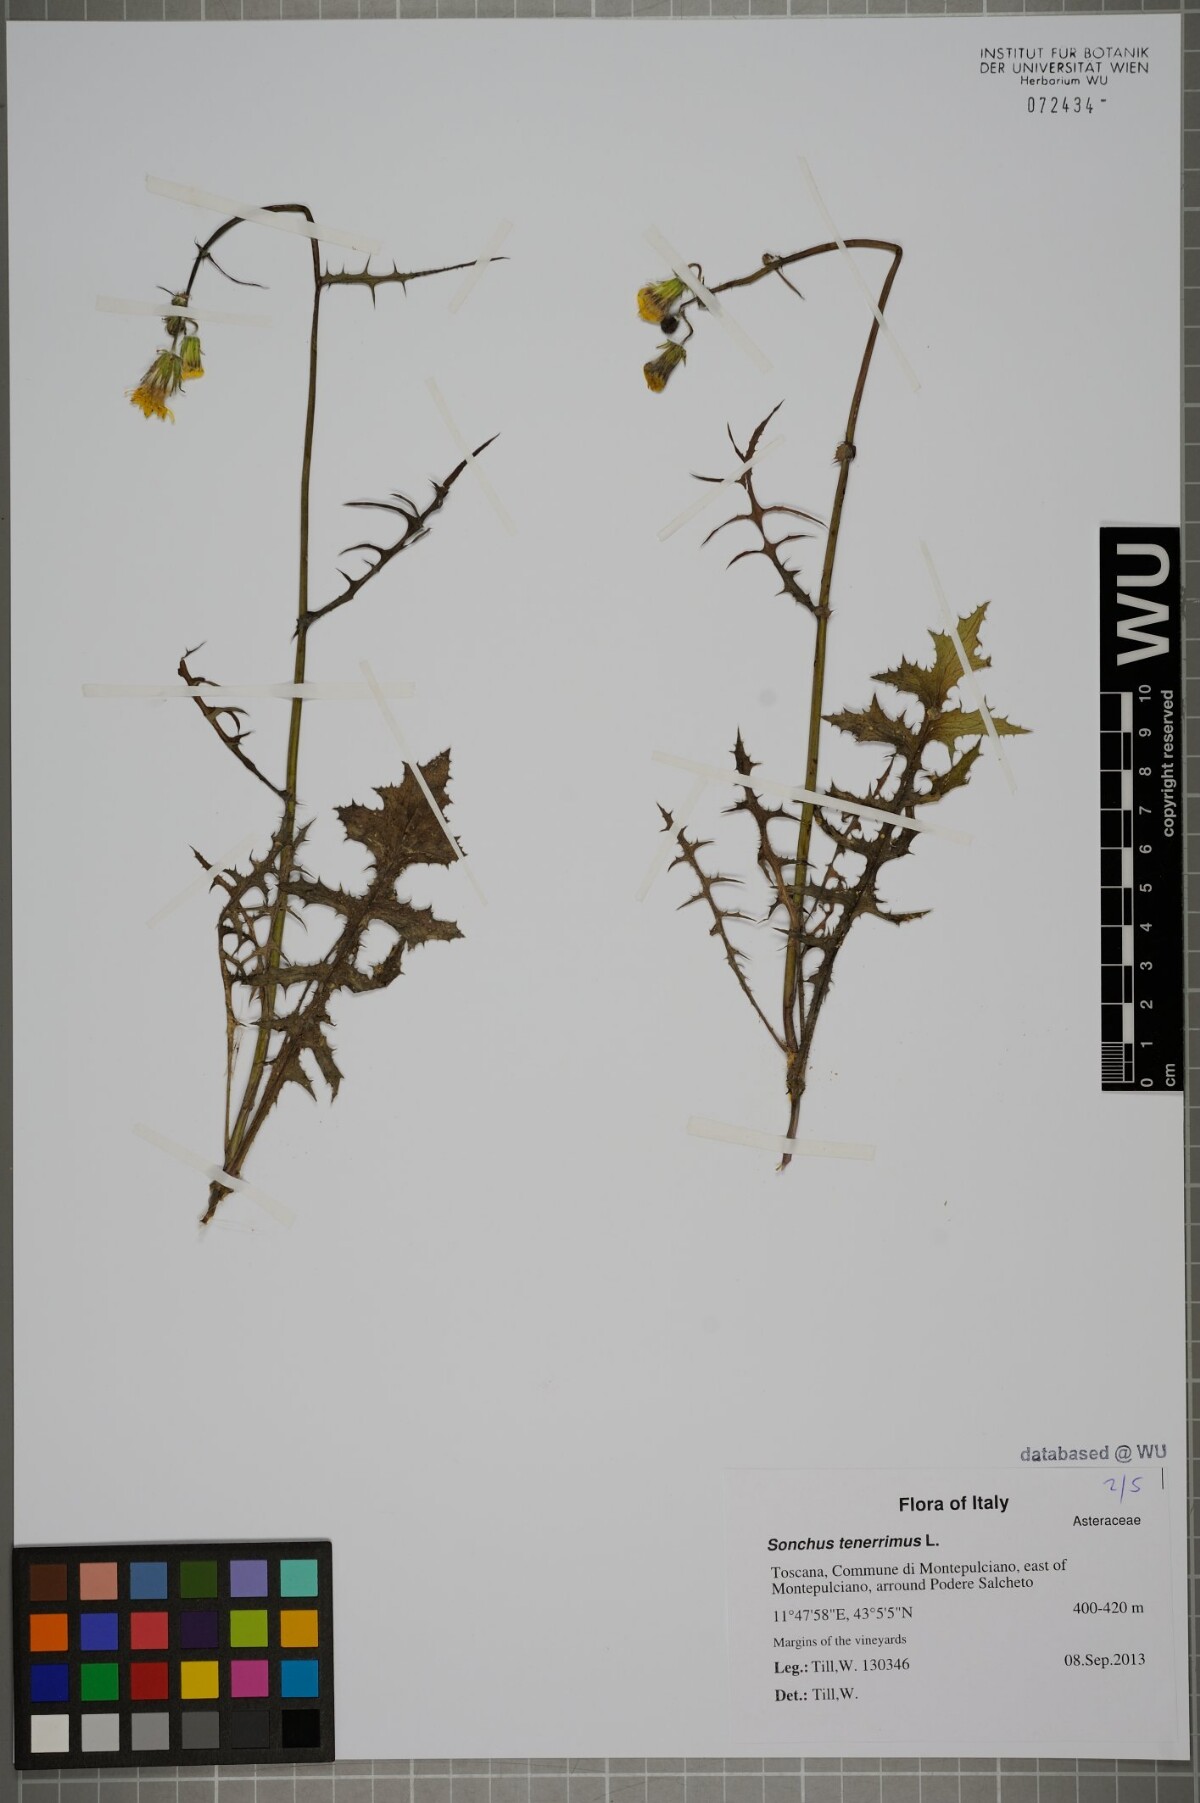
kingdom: Plantae
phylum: Tracheophyta
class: Magnoliopsida
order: Asterales
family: Asteraceae
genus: Sonchus
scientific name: Sonchus tenerrimus
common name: Clammy sowthistle
